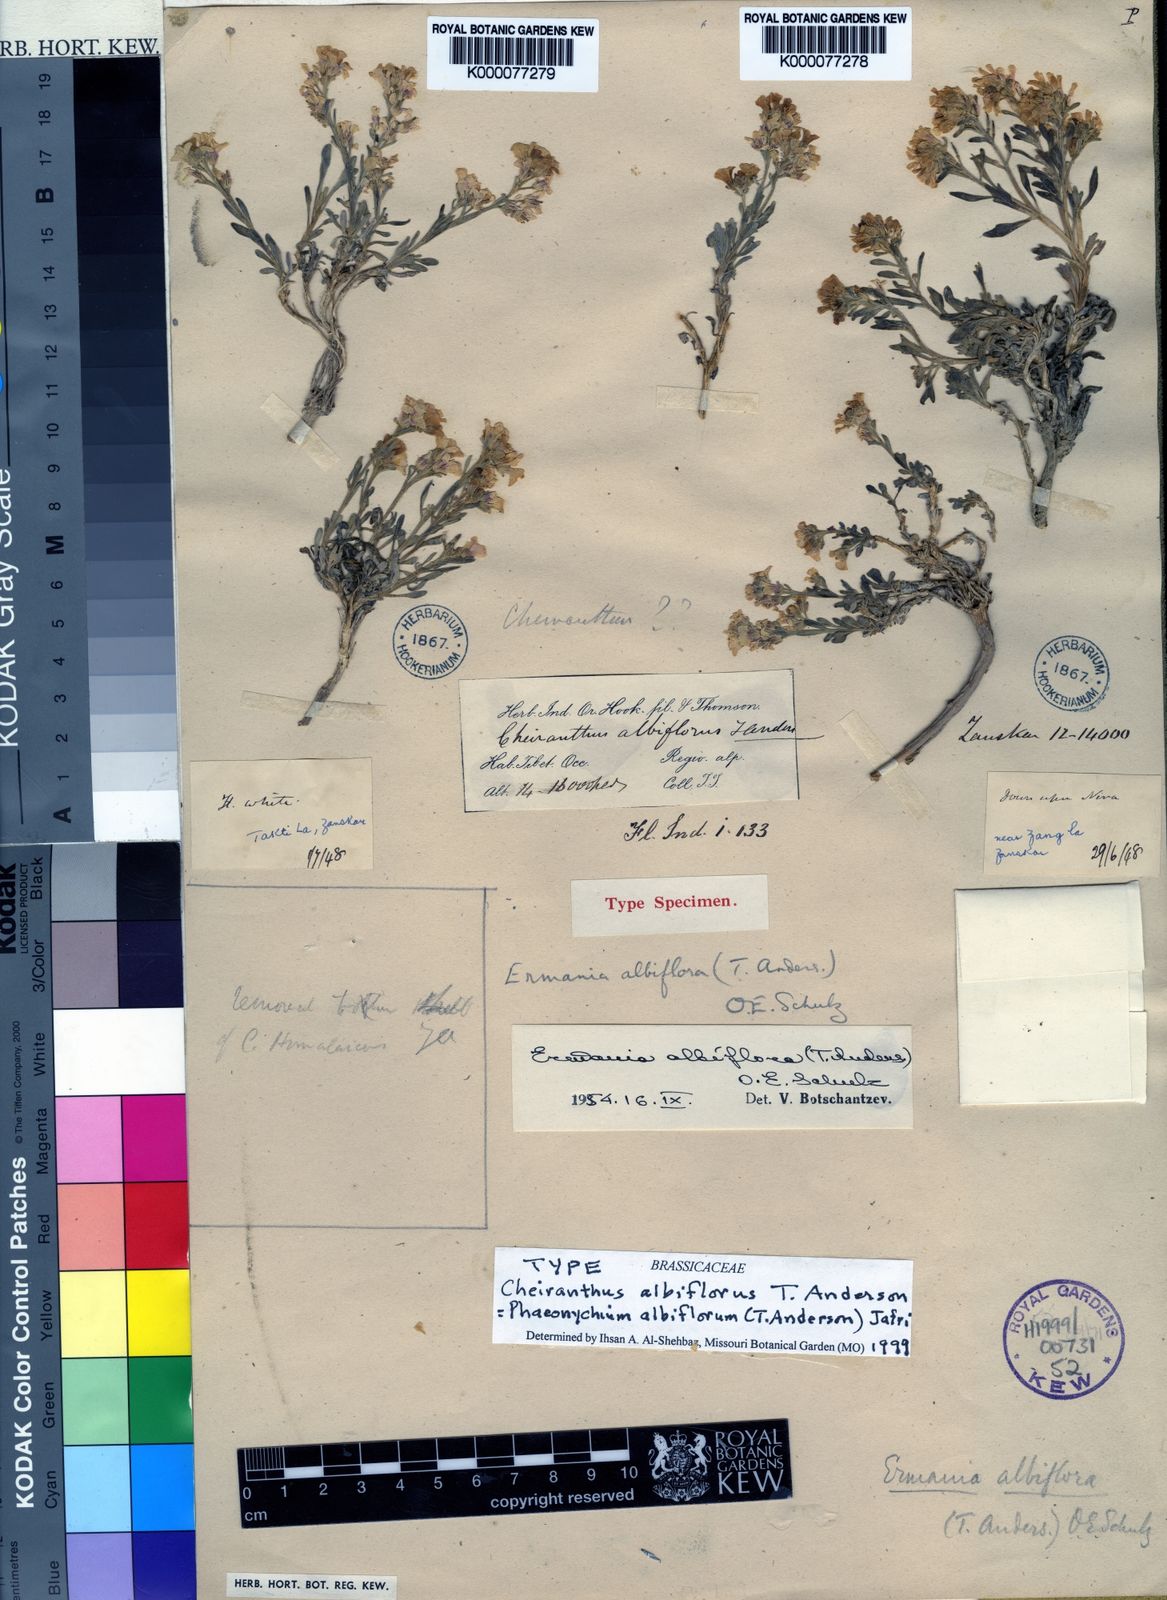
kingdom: Plantae
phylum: Tracheophyta
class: Magnoliopsida
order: Brassicales
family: Brassicaceae
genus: Solms-laubachia
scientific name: Solms-laubachia albiflora
